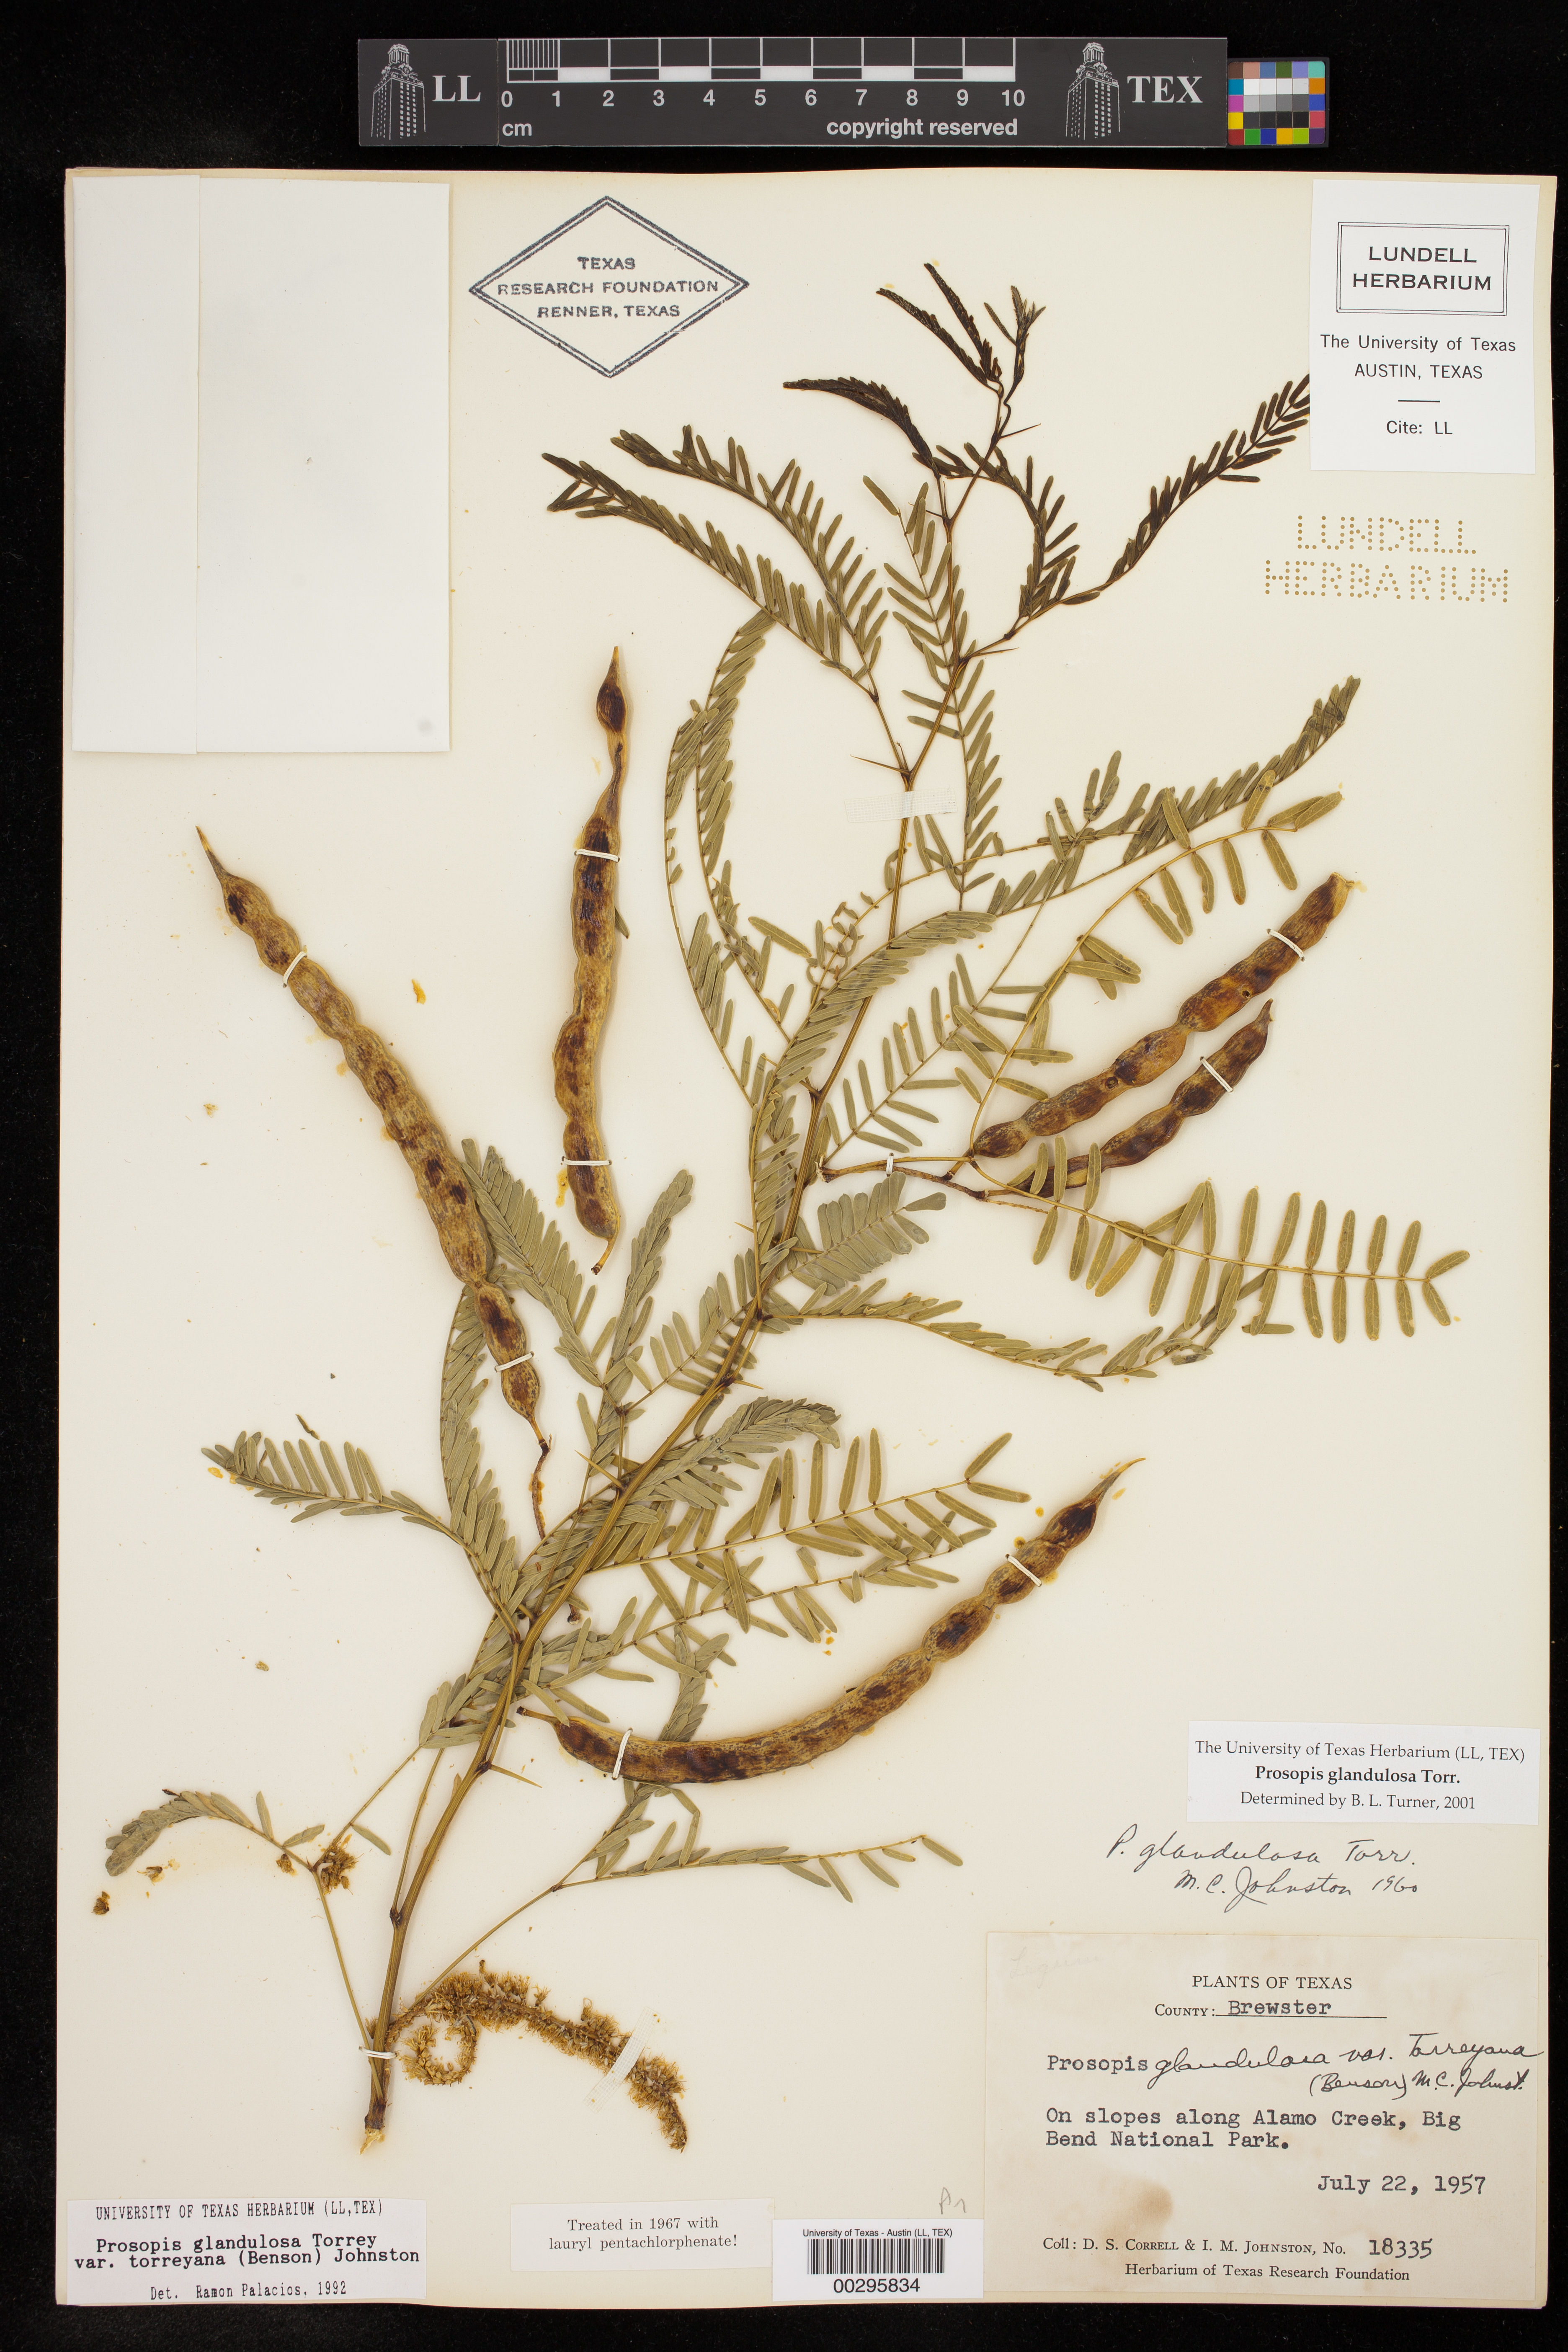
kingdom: Plantae
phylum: Tracheophyta
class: Magnoliopsida
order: Fabales
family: Fabaceae
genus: Prosopis
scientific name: Prosopis glandulosa
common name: Honey mesquite
